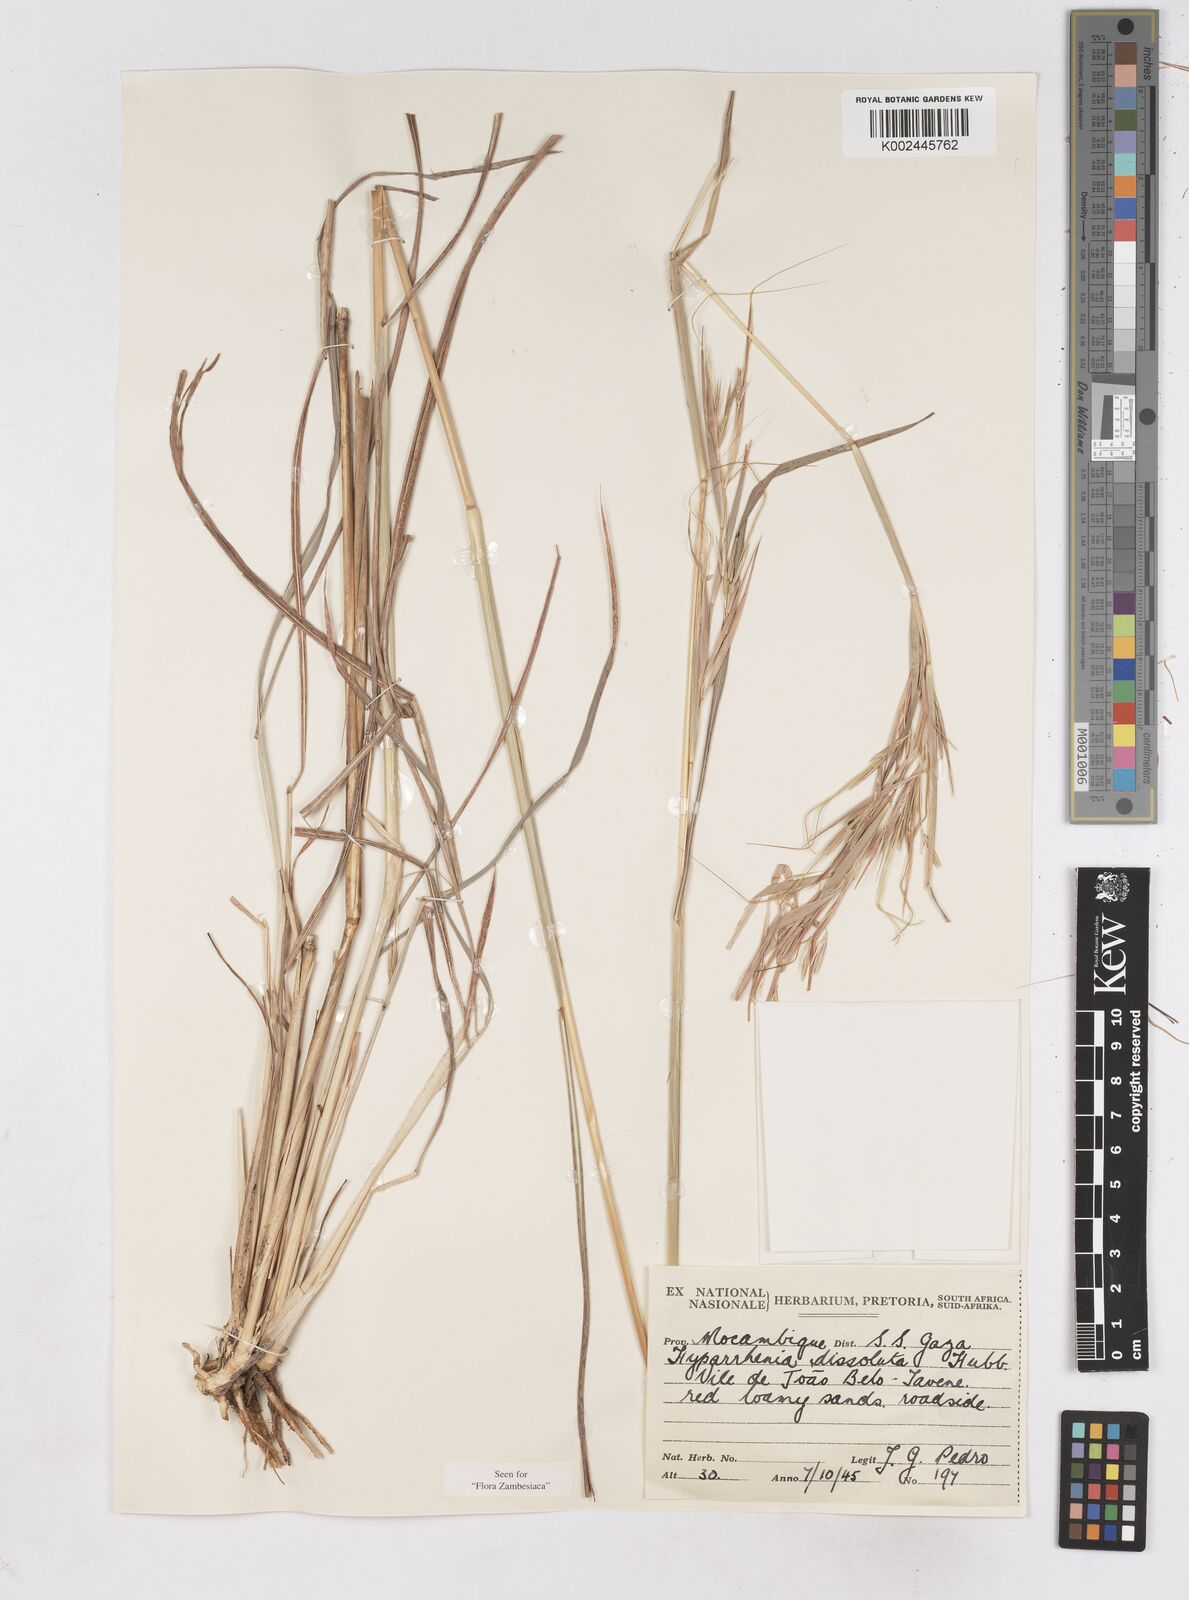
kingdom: Plantae
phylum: Tracheophyta
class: Liliopsida
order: Poales
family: Poaceae
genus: Hyperthelia
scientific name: Hyperthelia dissoluta
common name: Yellow thatching grass
